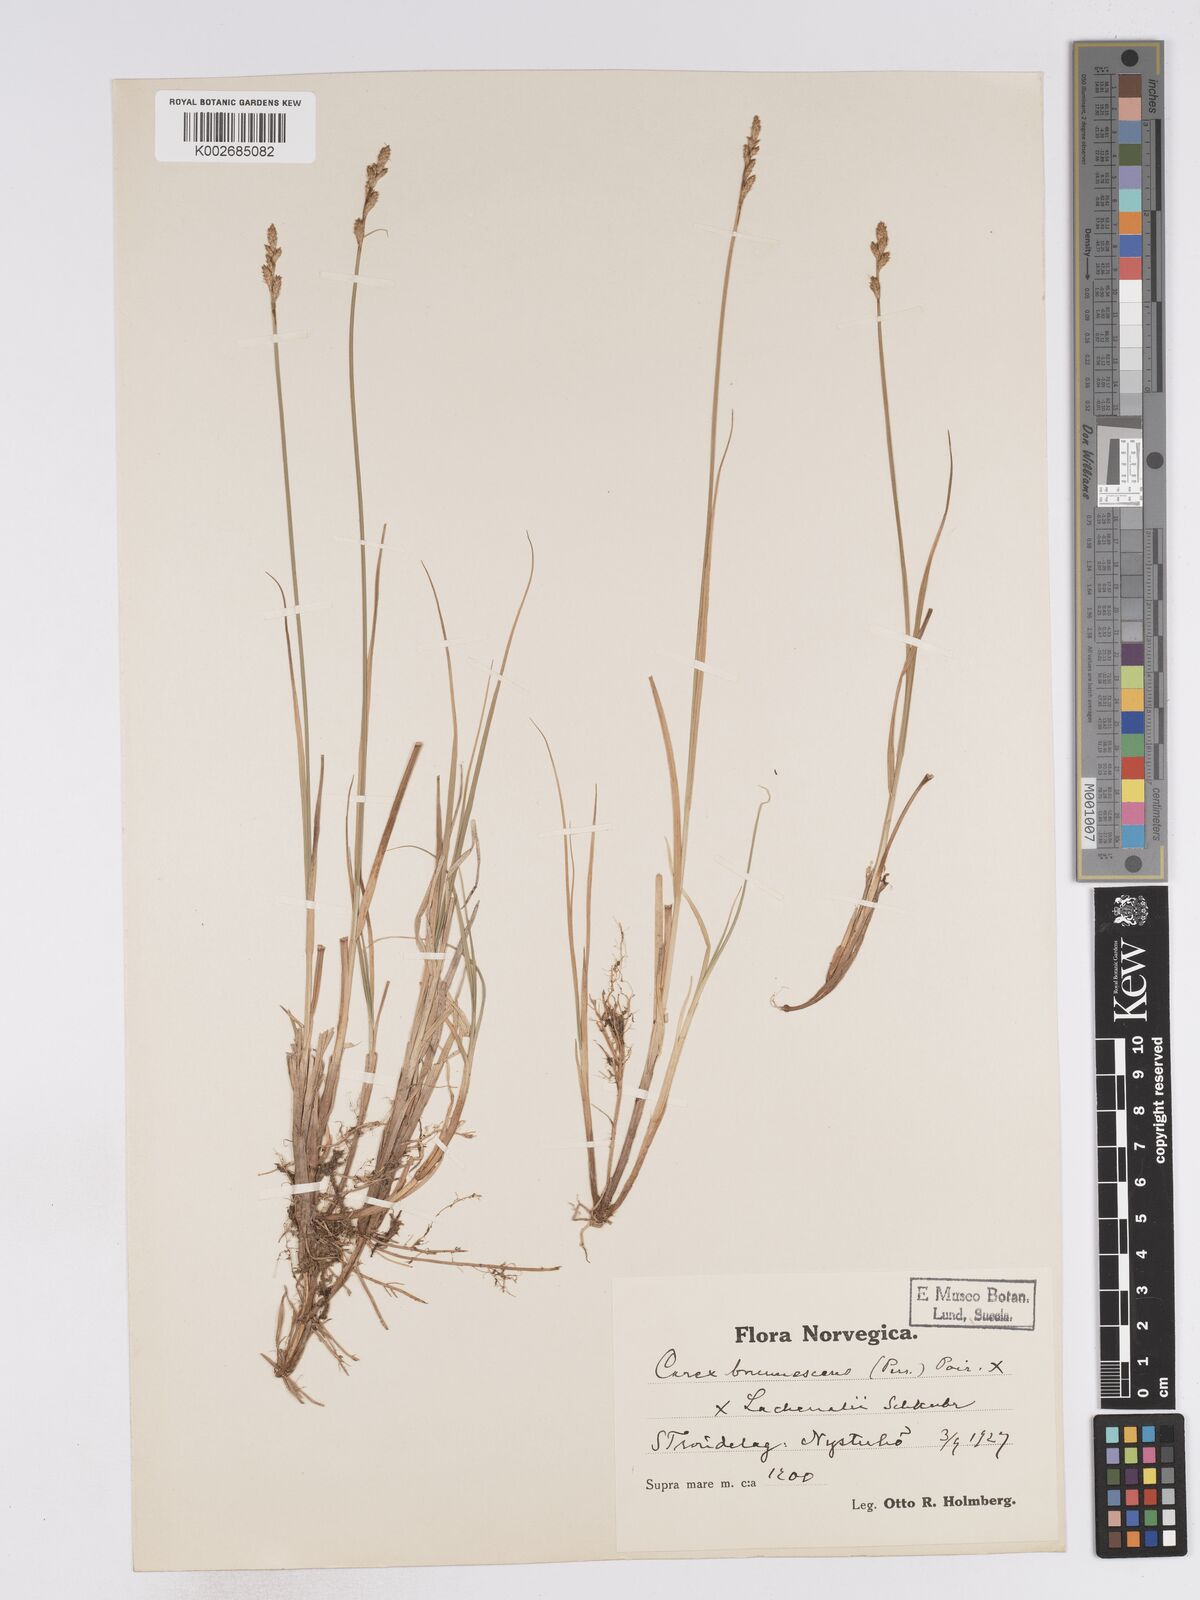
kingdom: Plantae
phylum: Tracheophyta
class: Liliopsida
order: Poales
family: Cyperaceae
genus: Carex
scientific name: Carex brunnescens
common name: Brown sedge
